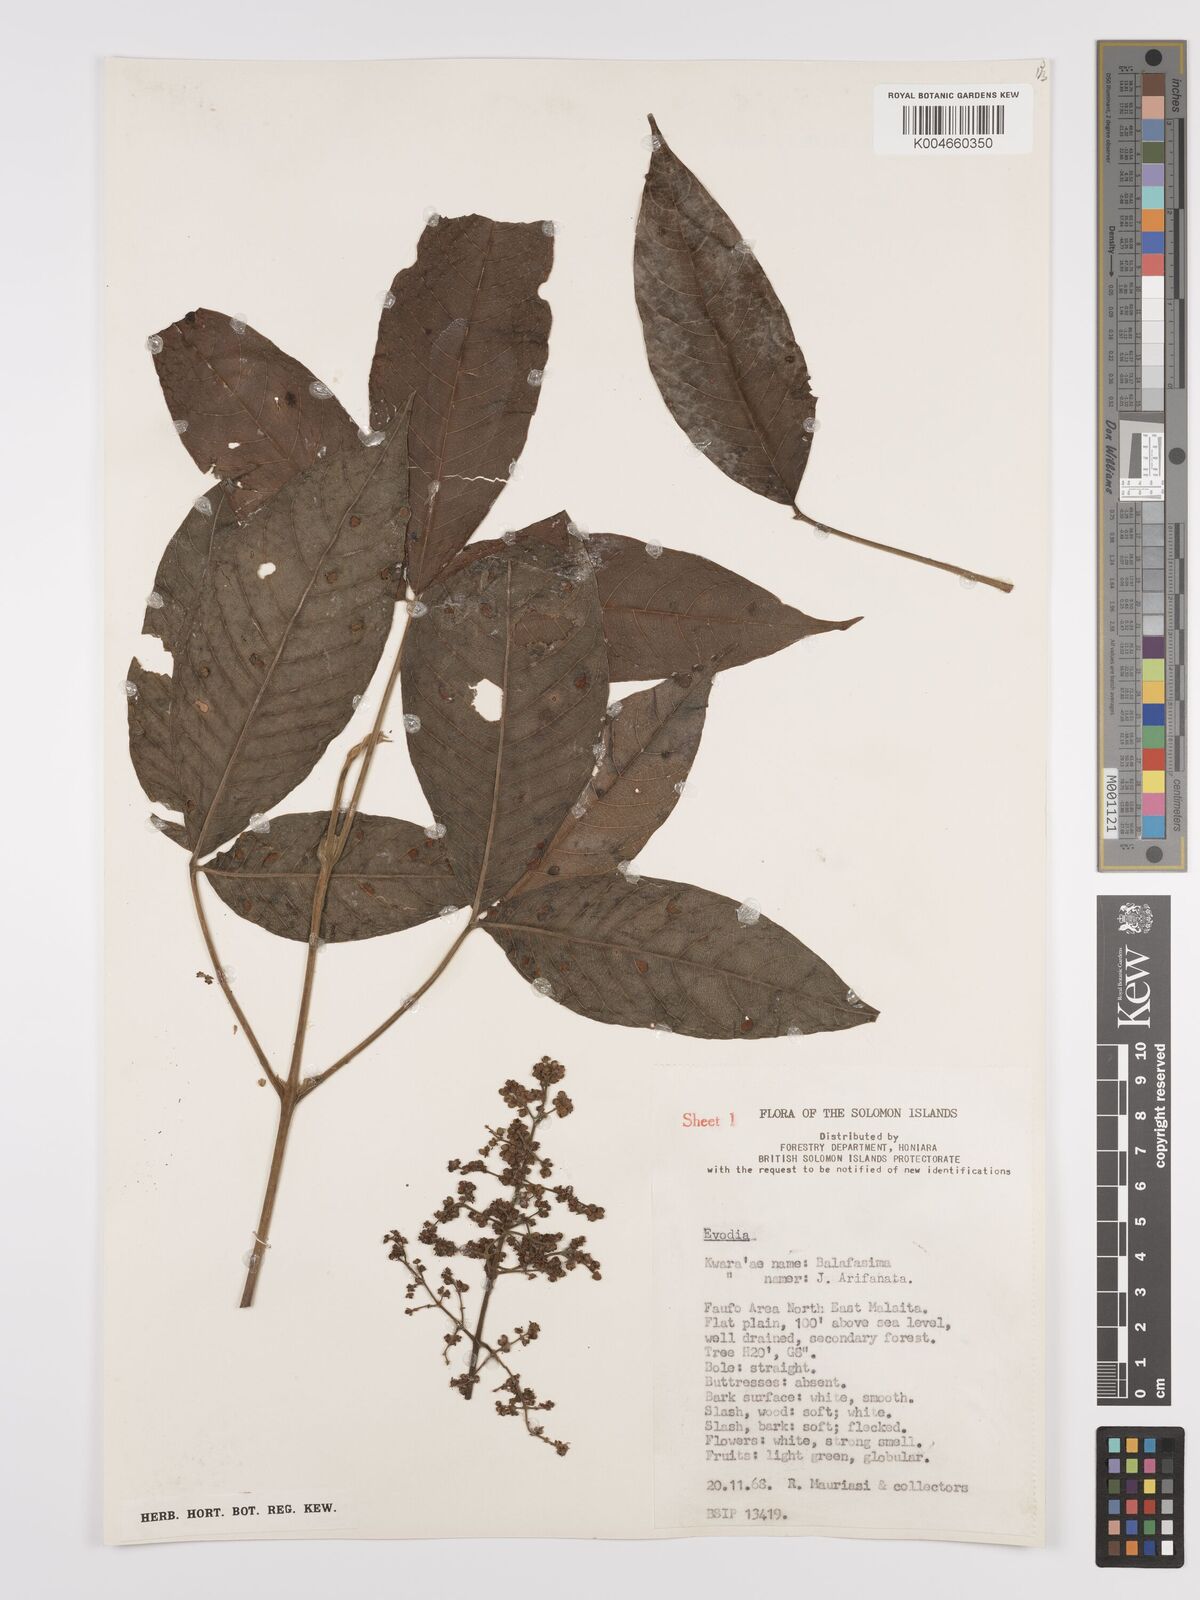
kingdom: Plantae
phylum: Tracheophyta
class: Magnoliopsida
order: Sapindales
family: Rutaceae
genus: Euodia
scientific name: Euodia
